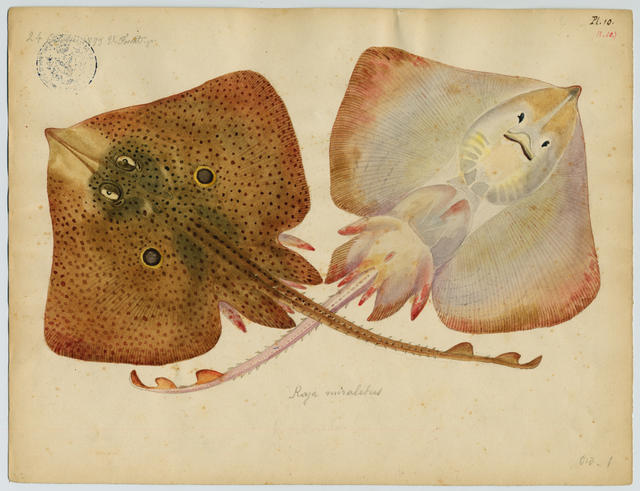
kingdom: Animalia
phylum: Chordata
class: Elasmobranchii
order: Rajiformes
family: Rajidae
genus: Raja
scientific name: Raja miraletus
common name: Brown ray
